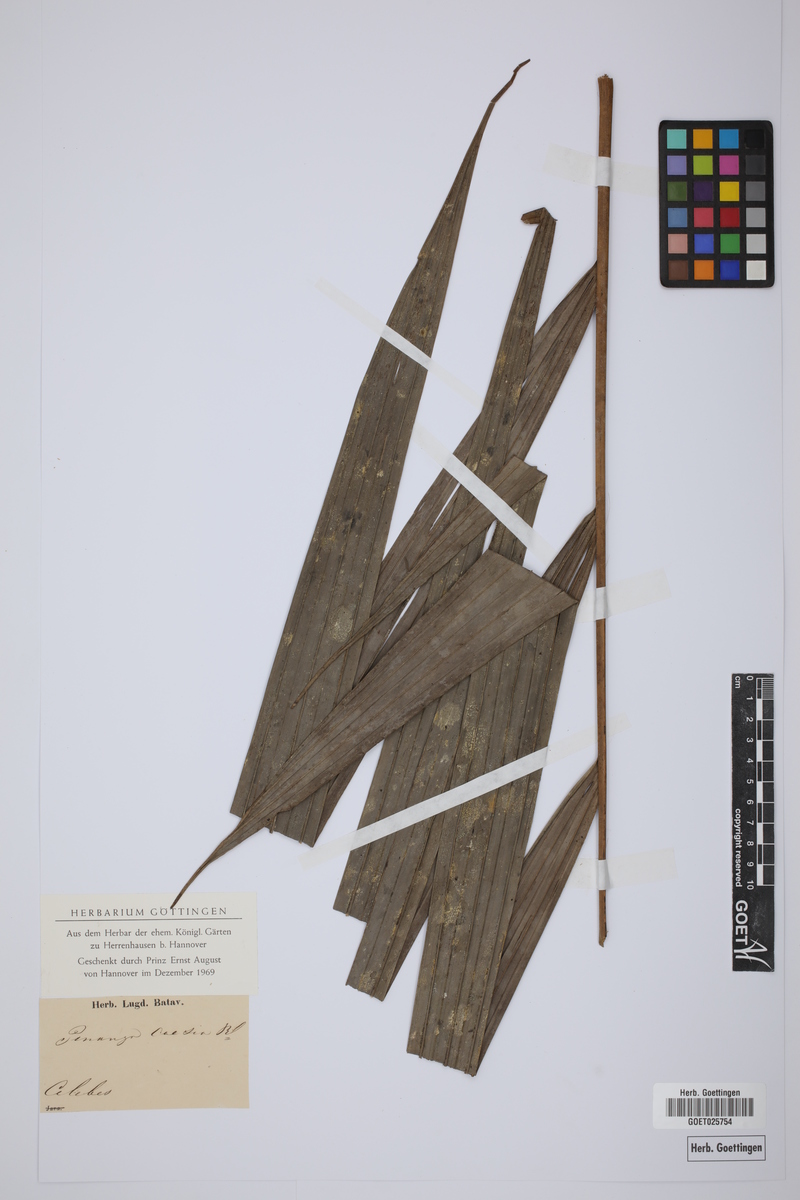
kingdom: Plantae
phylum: Tracheophyta
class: Liliopsida
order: Arecales
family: Arecaceae
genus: Pinanga
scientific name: Pinanga caesia
